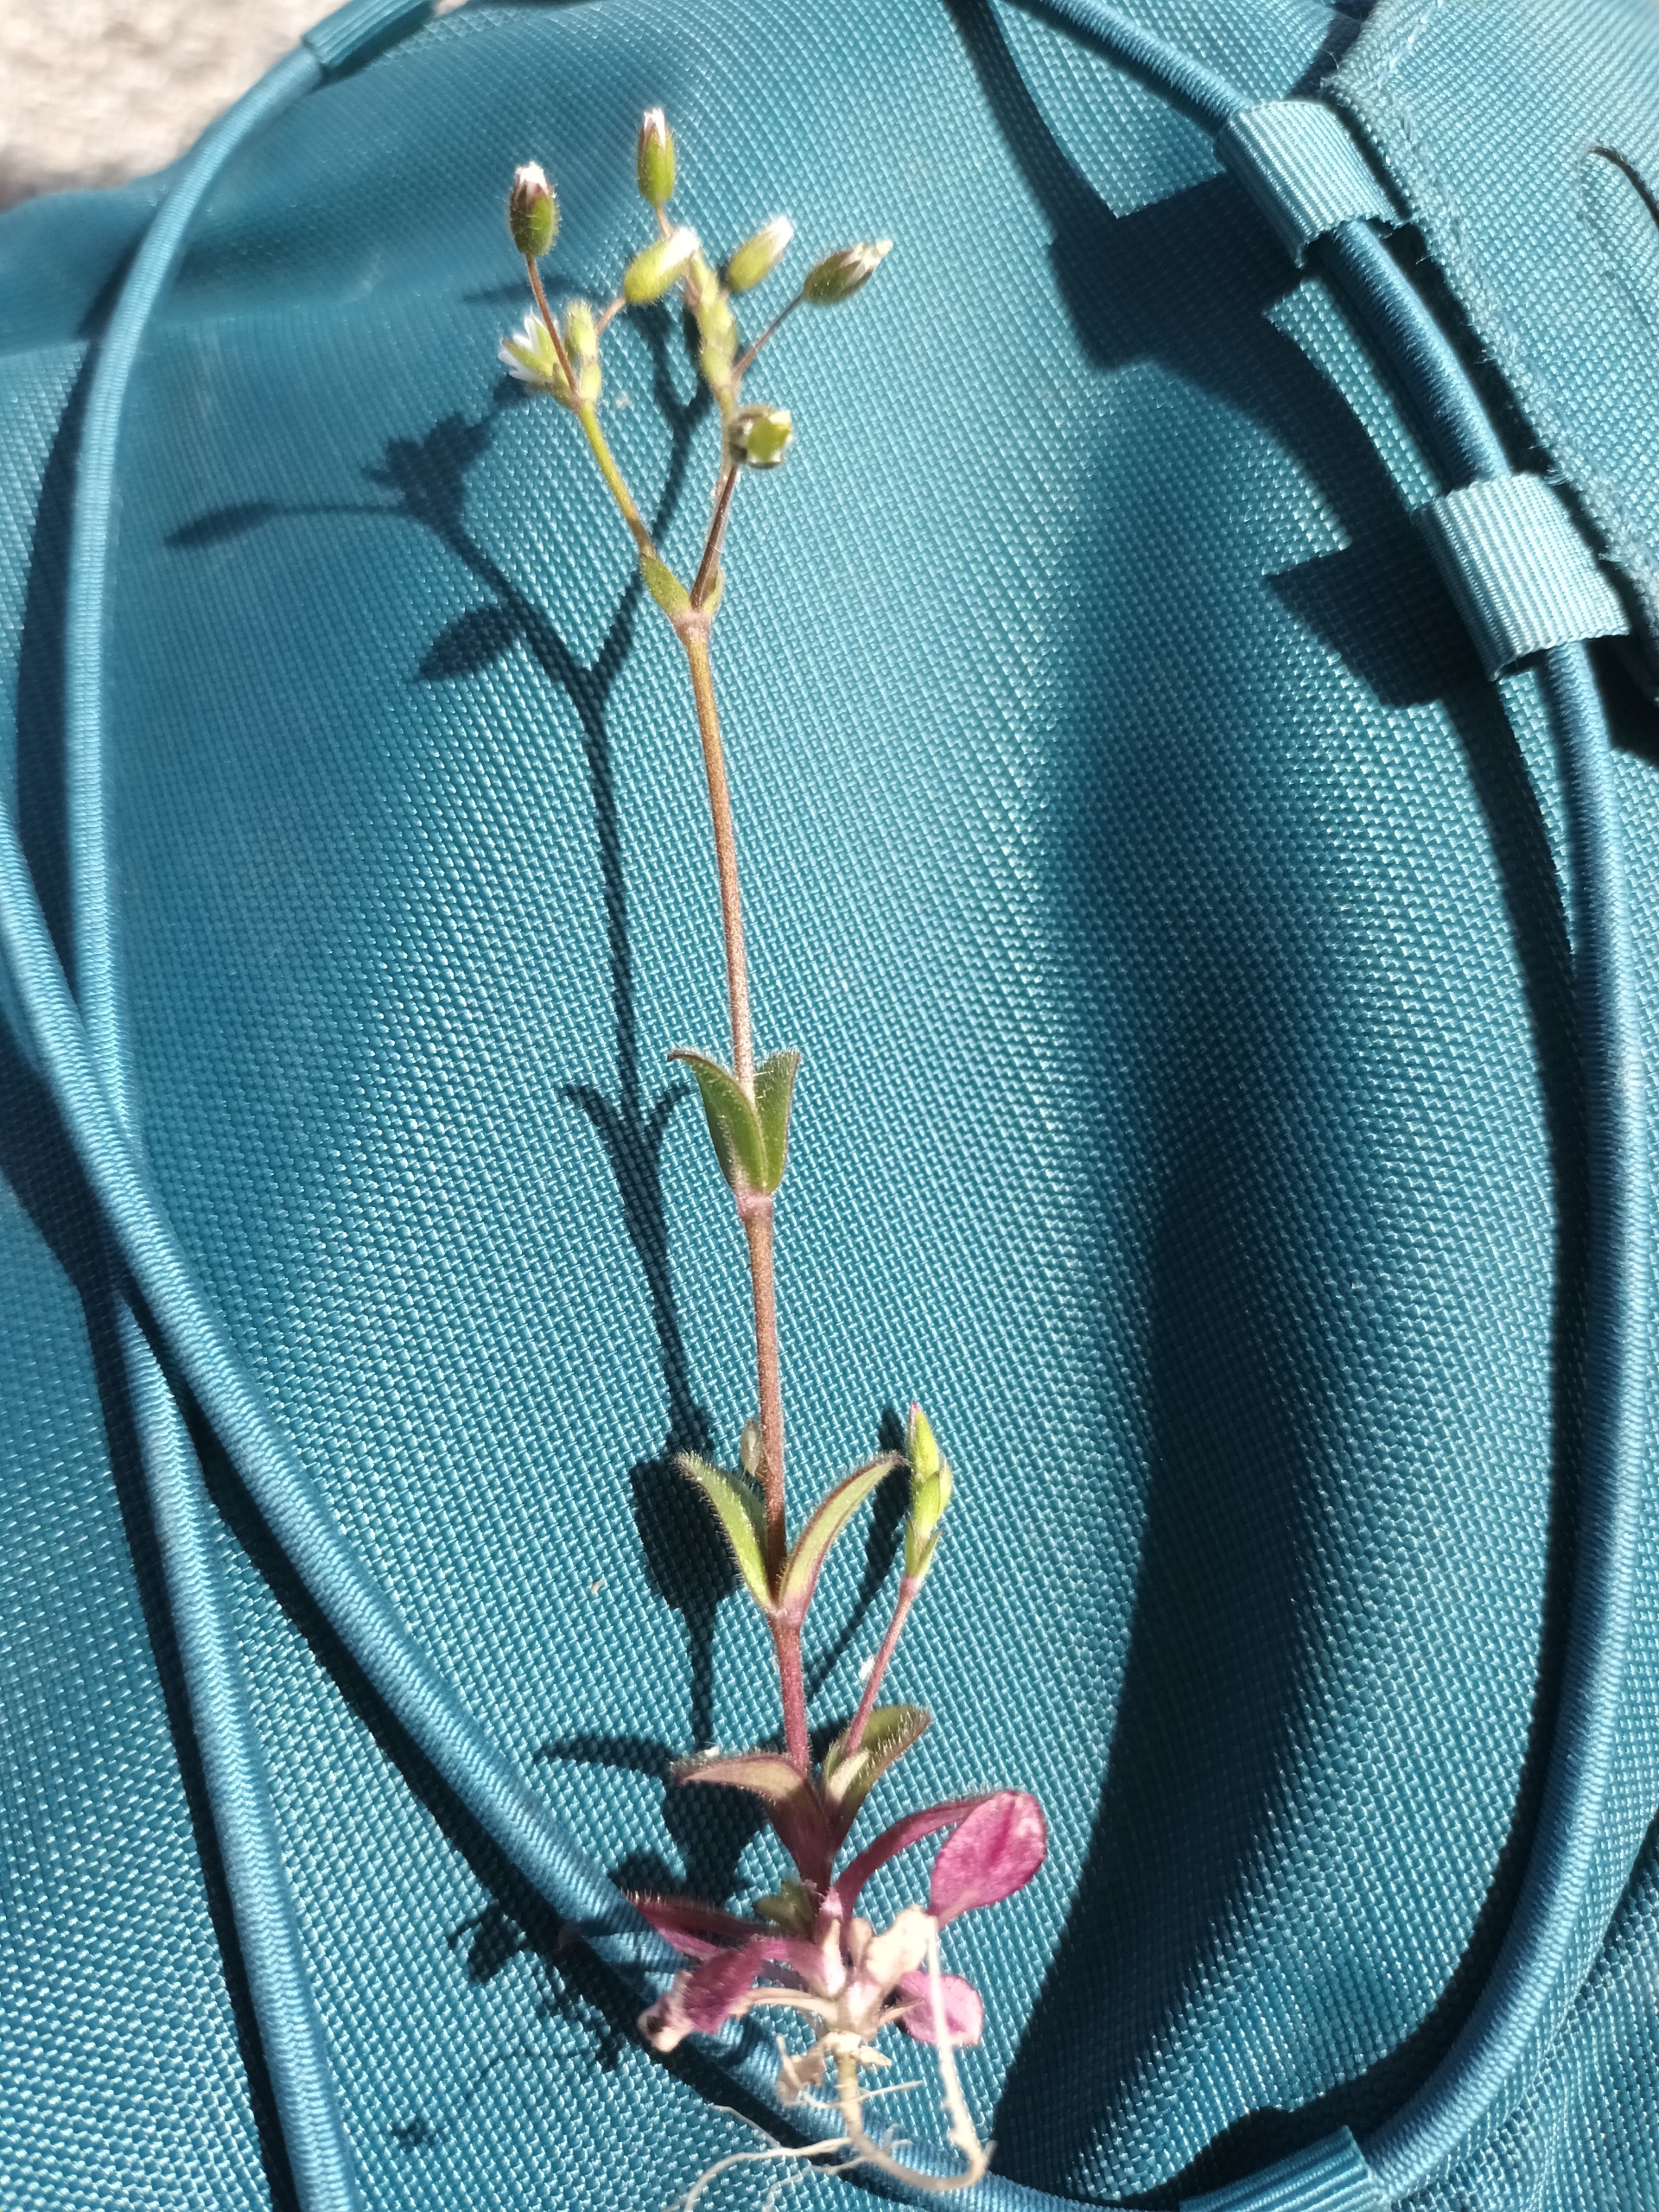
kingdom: Plantae
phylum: Tracheophyta
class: Magnoliopsida
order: Caryophyllales
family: Caryophyllaceae
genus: Cerastium
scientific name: Cerastium pumilum
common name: Liden hønsetarm
